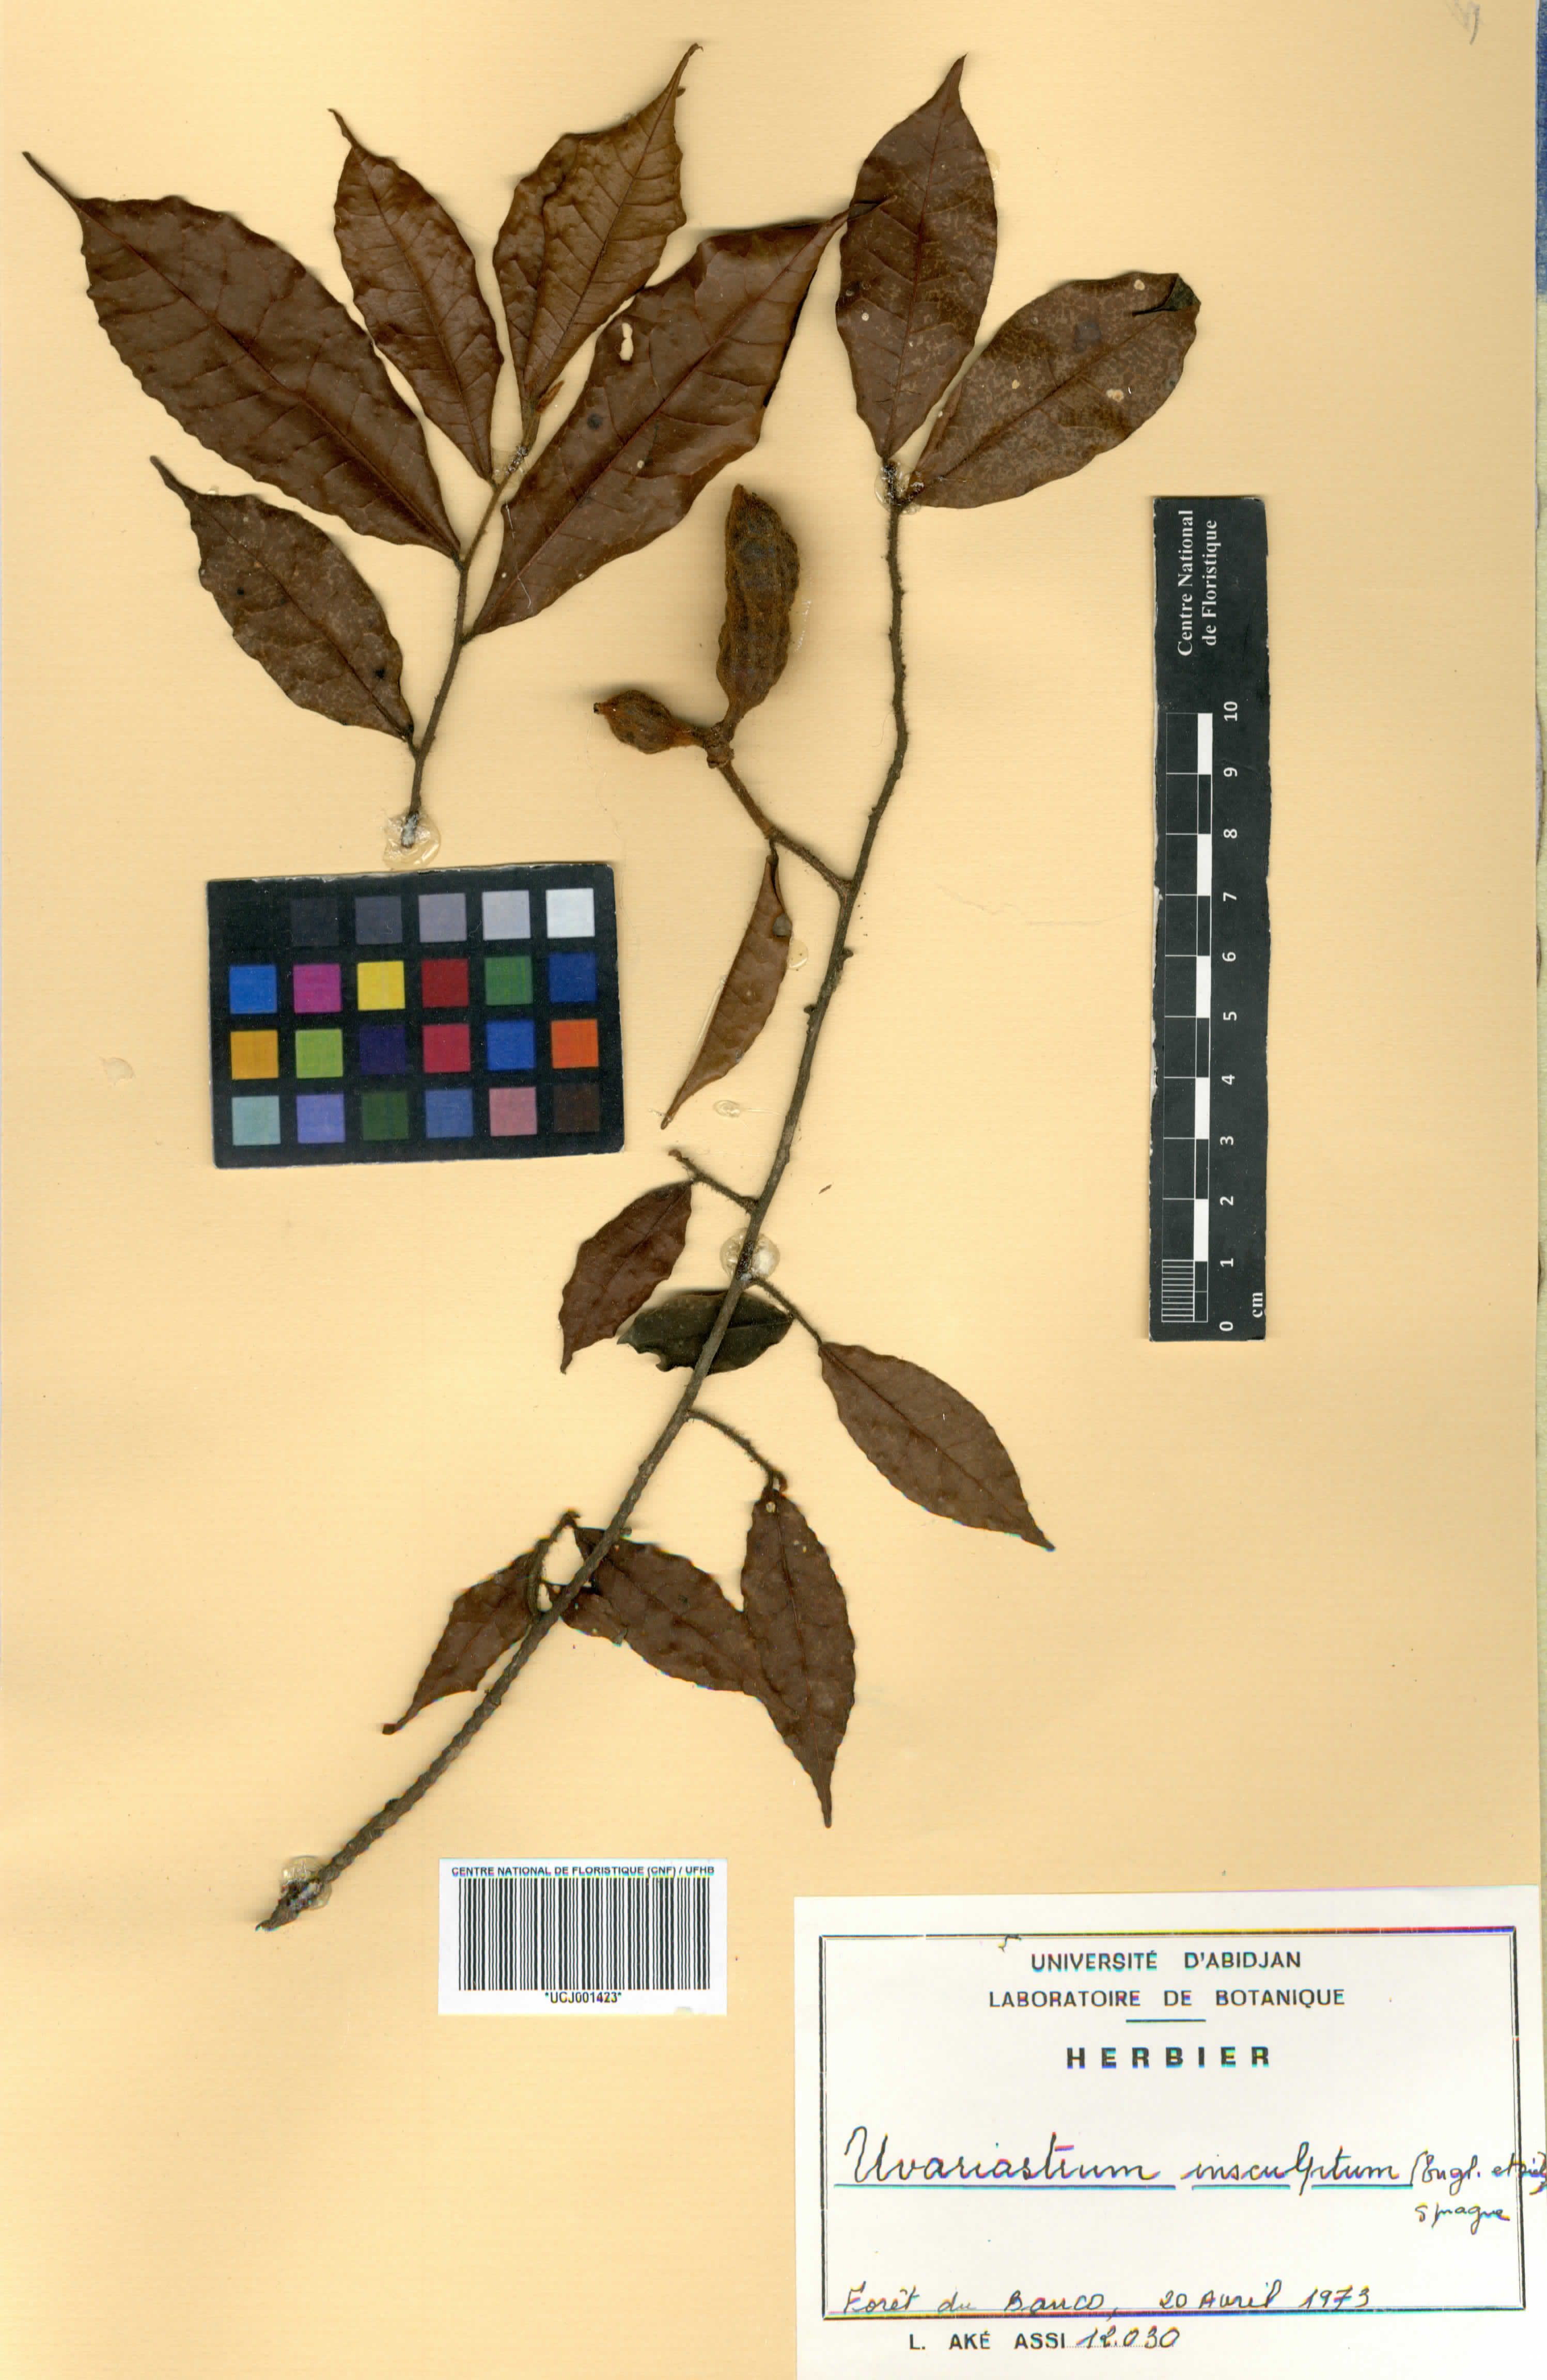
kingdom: Plantae
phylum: Tracheophyta
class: Magnoliopsida
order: Magnoliales
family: Annonaceae
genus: Uvariastrum
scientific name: Uvariastrum pierreanum
